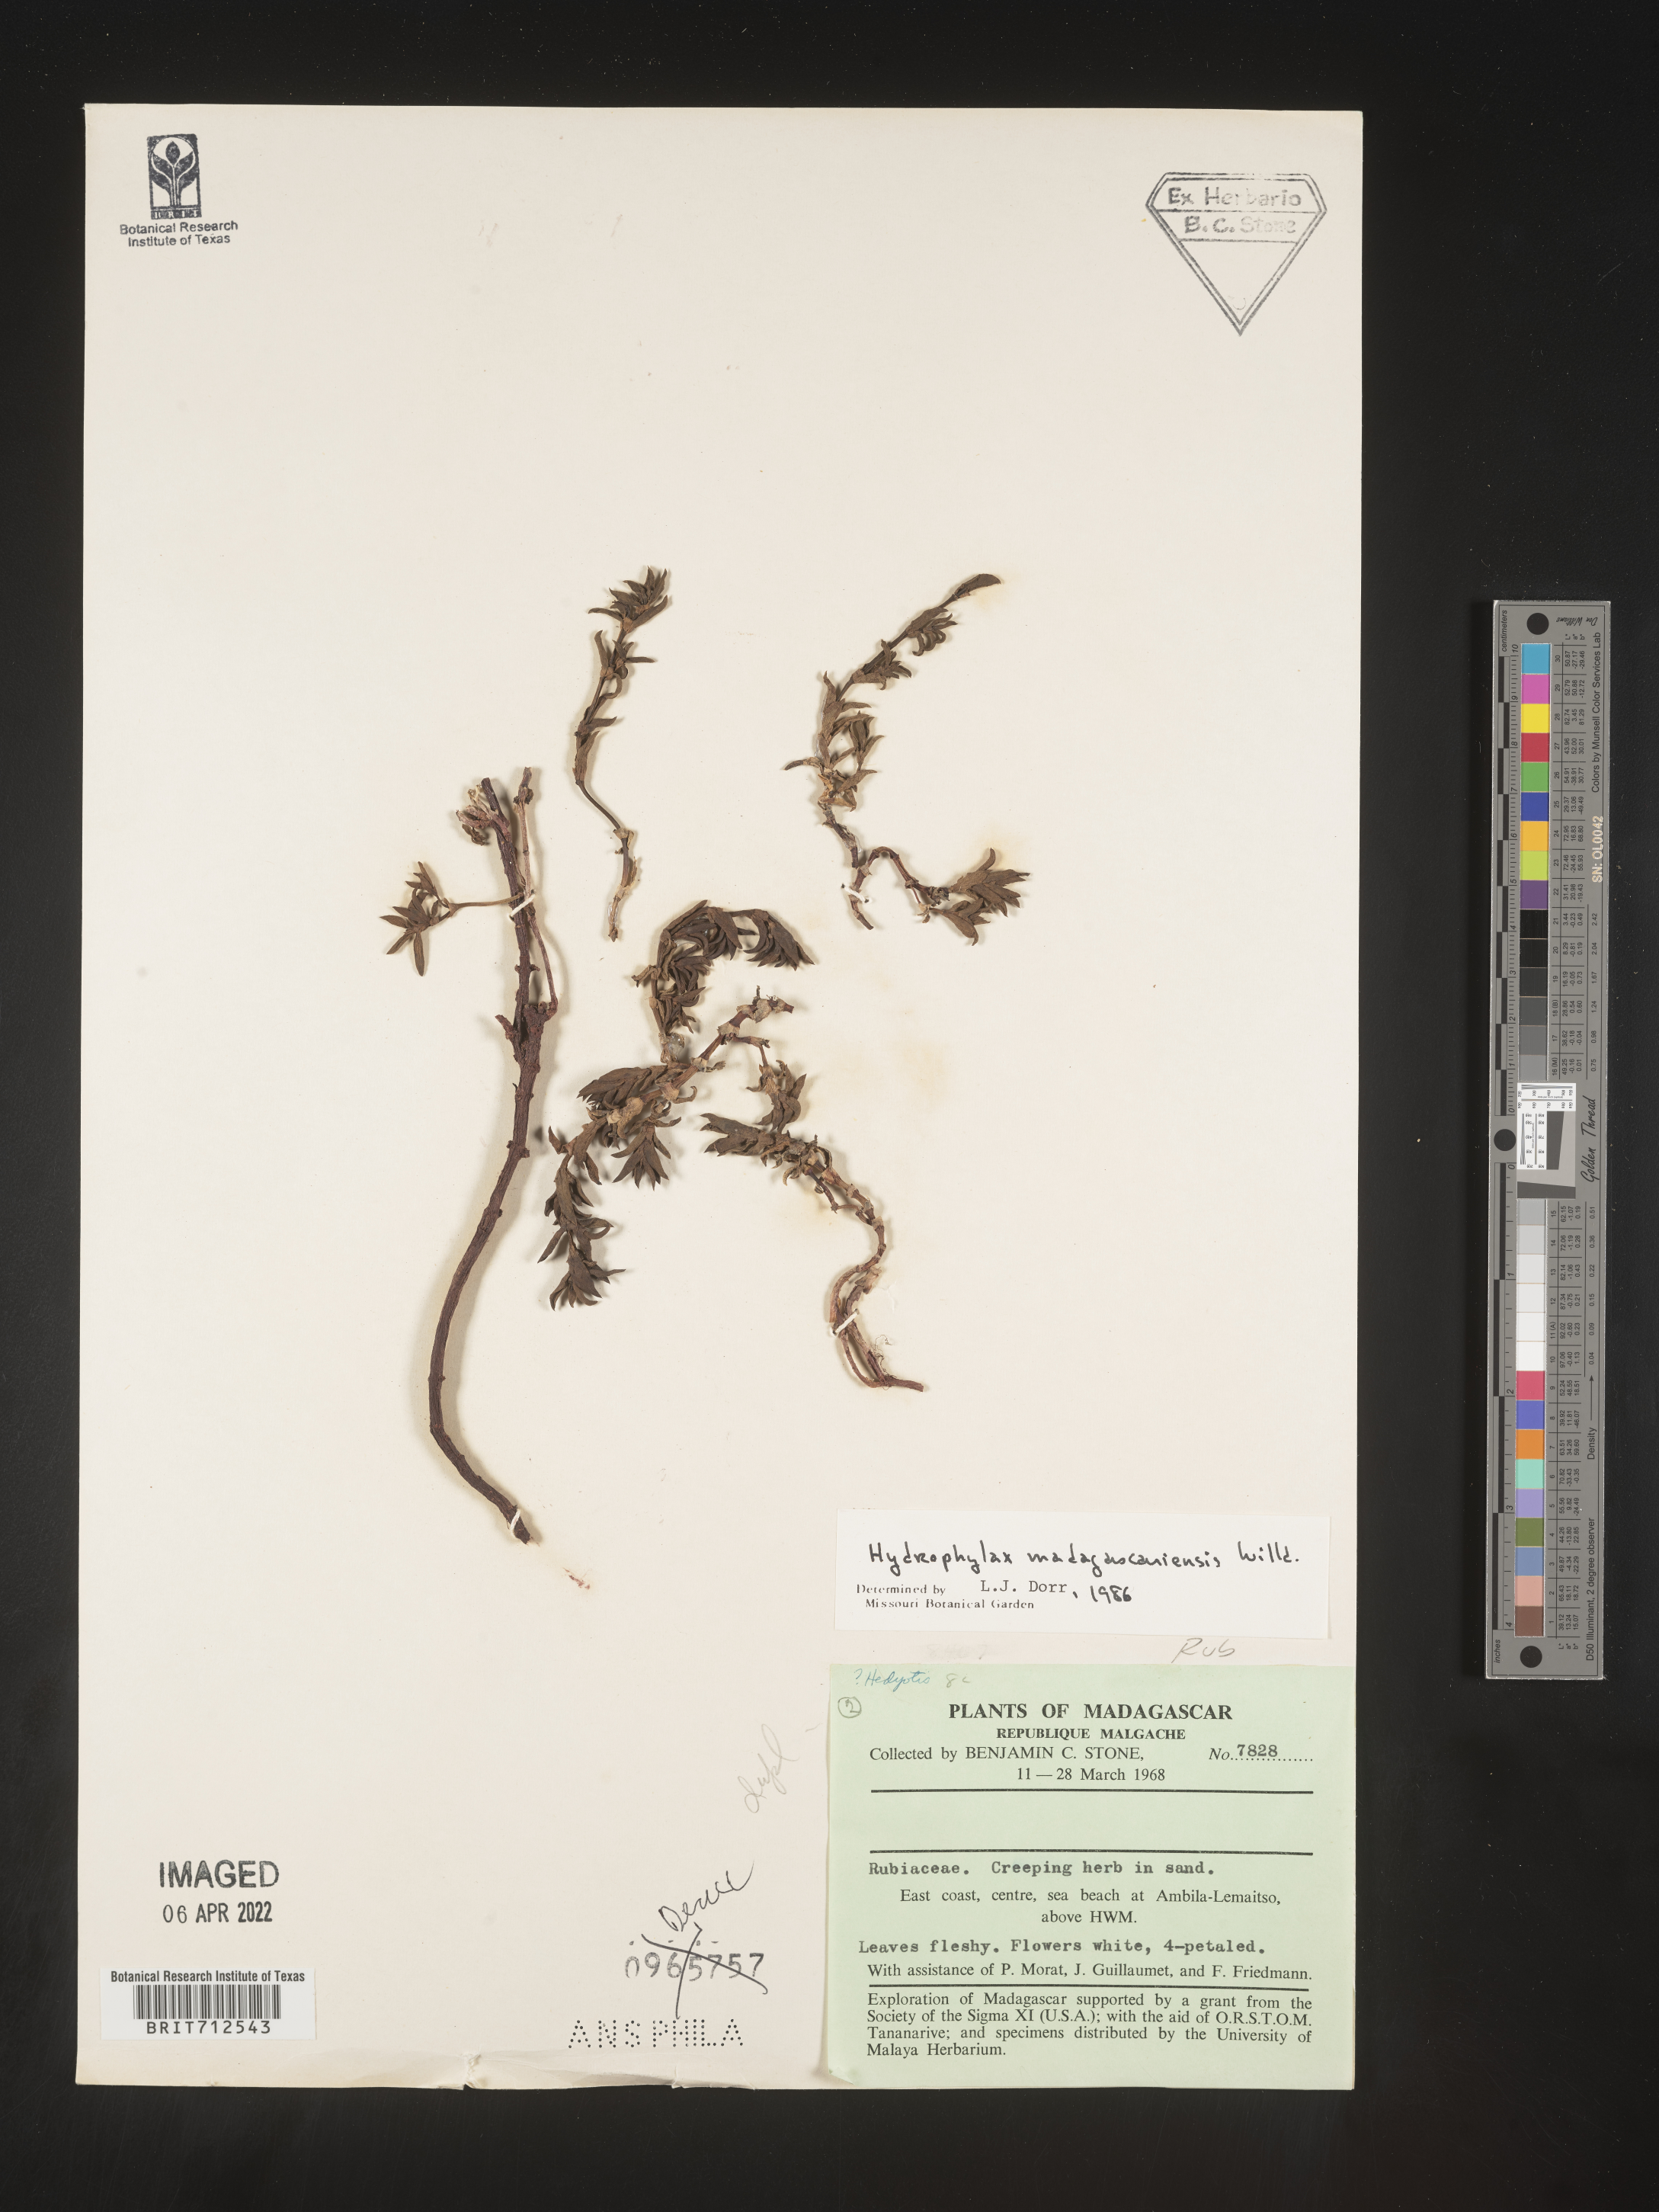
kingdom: Plantae
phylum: Tracheophyta
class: Magnoliopsida
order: Gentianales
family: Rubiaceae
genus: Hydrophylax
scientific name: Hydrophylax
